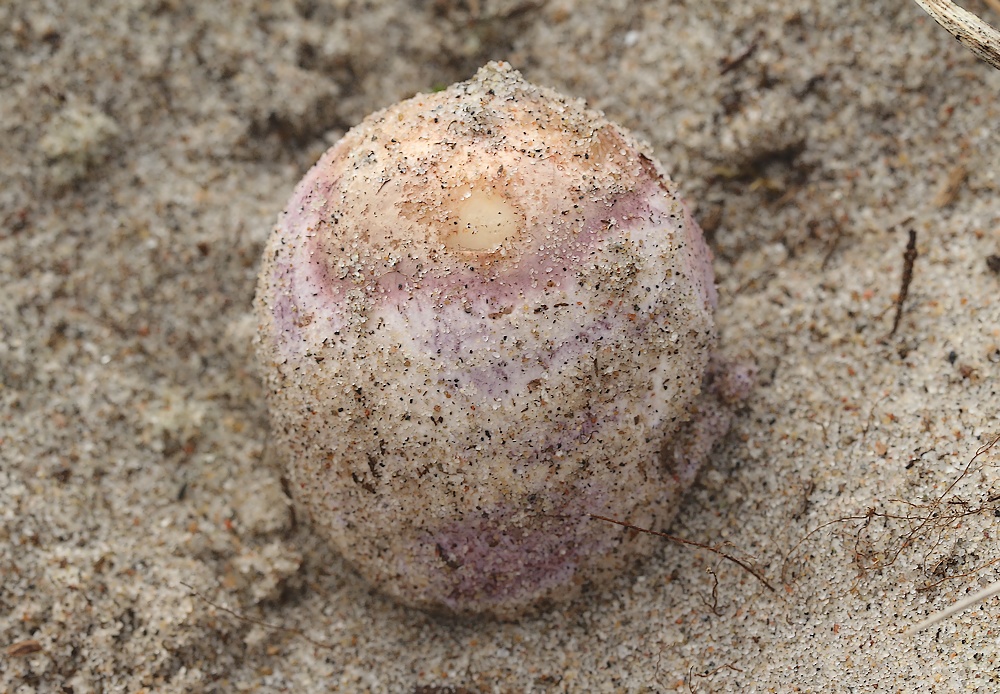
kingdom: Fungi
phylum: Basidiomycota
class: Agaricomycetes
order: Phallales
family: Phallaceae
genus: Phallus
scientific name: Phallus hadriani
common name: sand-stinksvamp
